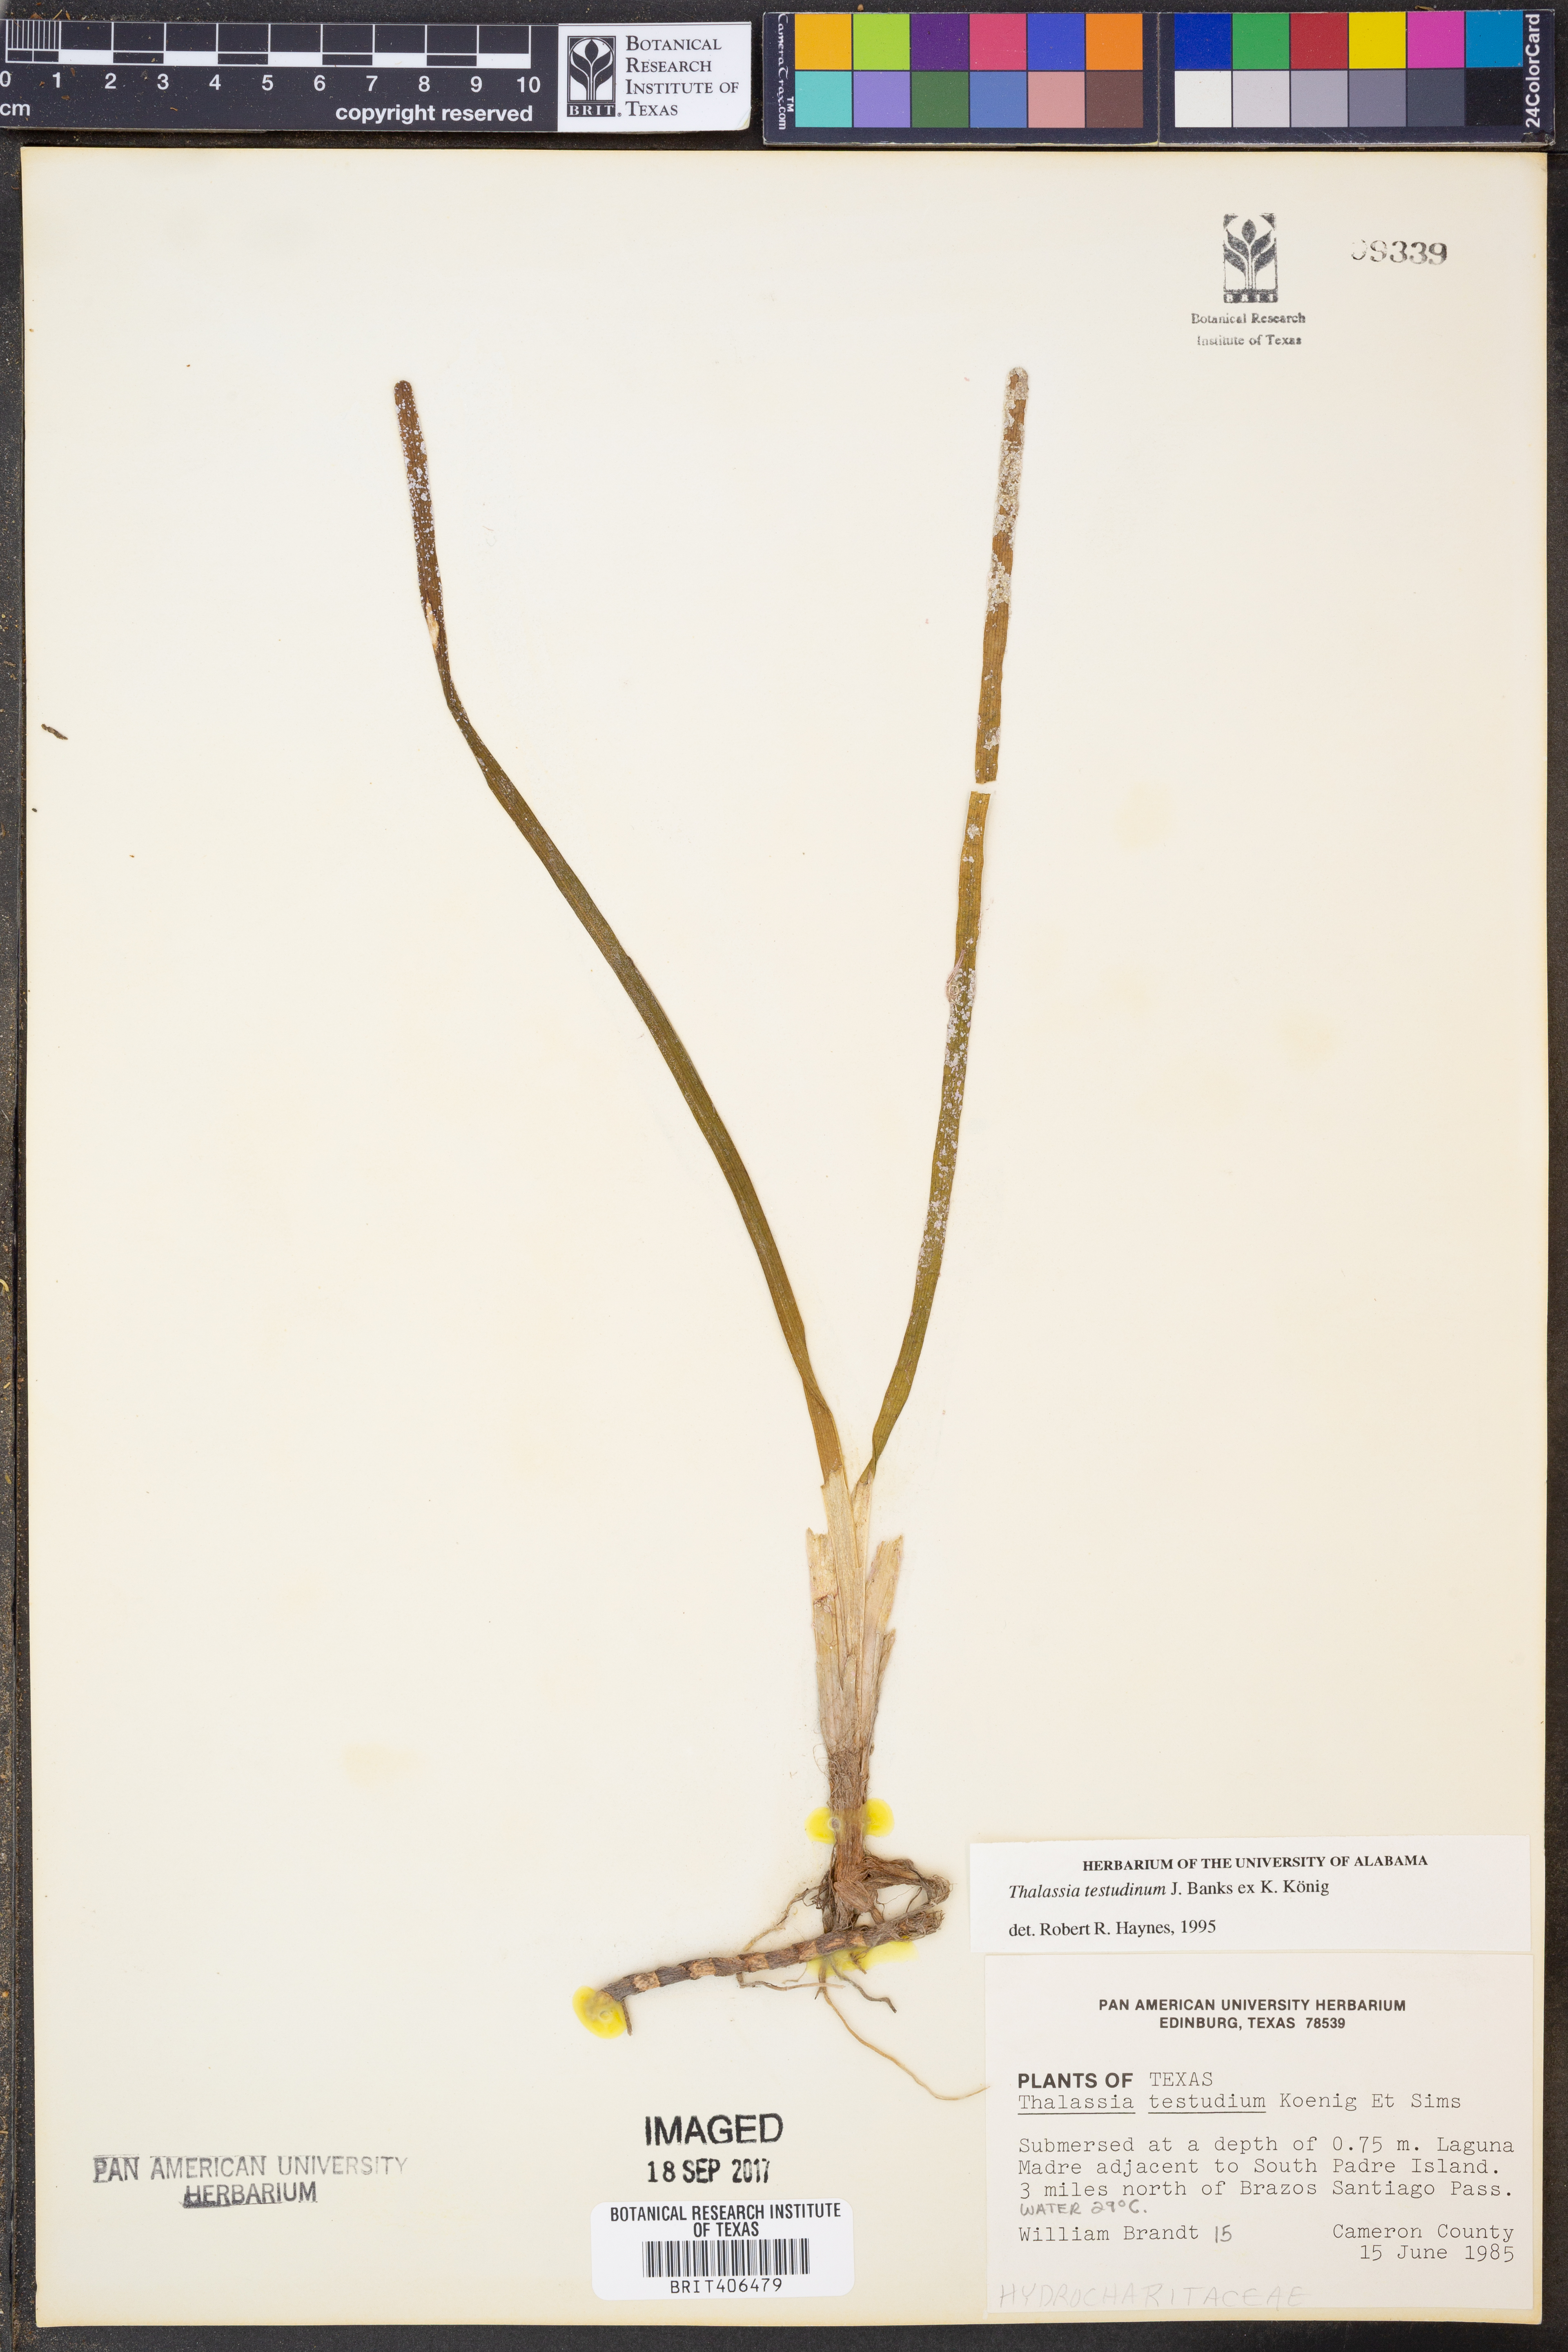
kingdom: Plantae
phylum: Tracheophyta
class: Liliopsida
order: Alismatales
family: Hydrocharitaceae
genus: Thalassia
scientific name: Thalassia testudinum
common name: Species code: tt
